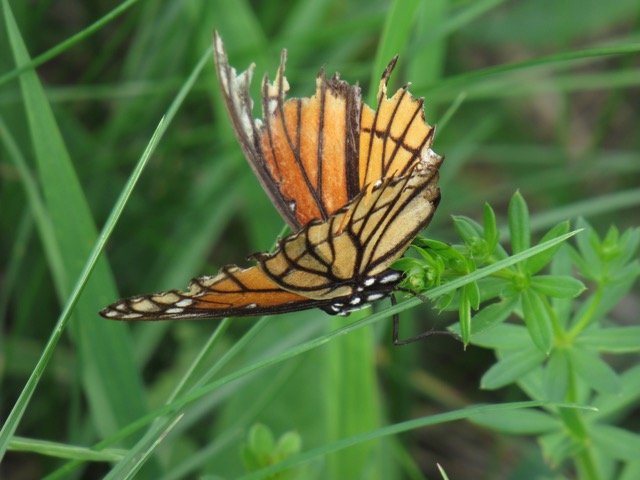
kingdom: Animalia
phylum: Arthropoda
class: Insecta
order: Lepidoptera
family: Nymphalidae
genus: Limenitis
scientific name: Limenitis archippus
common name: Viceroy
